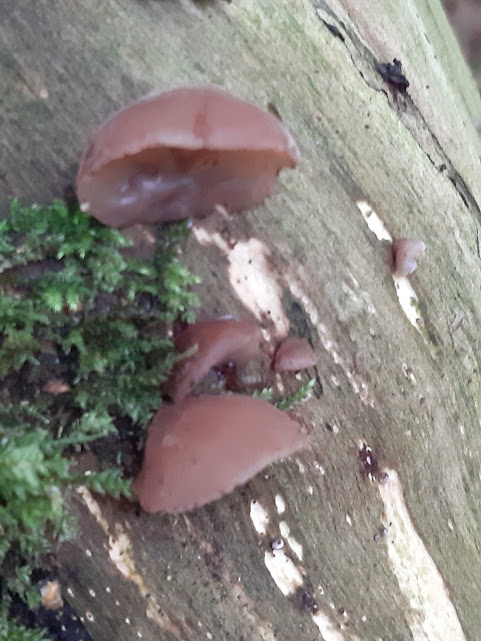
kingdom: Fungi
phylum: Basidiomycota
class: Agaricomycetes
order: Auriculariales
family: Auriculariaceae
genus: Auricularia
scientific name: Auricularia auricula-judae
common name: almindelig judasøre
